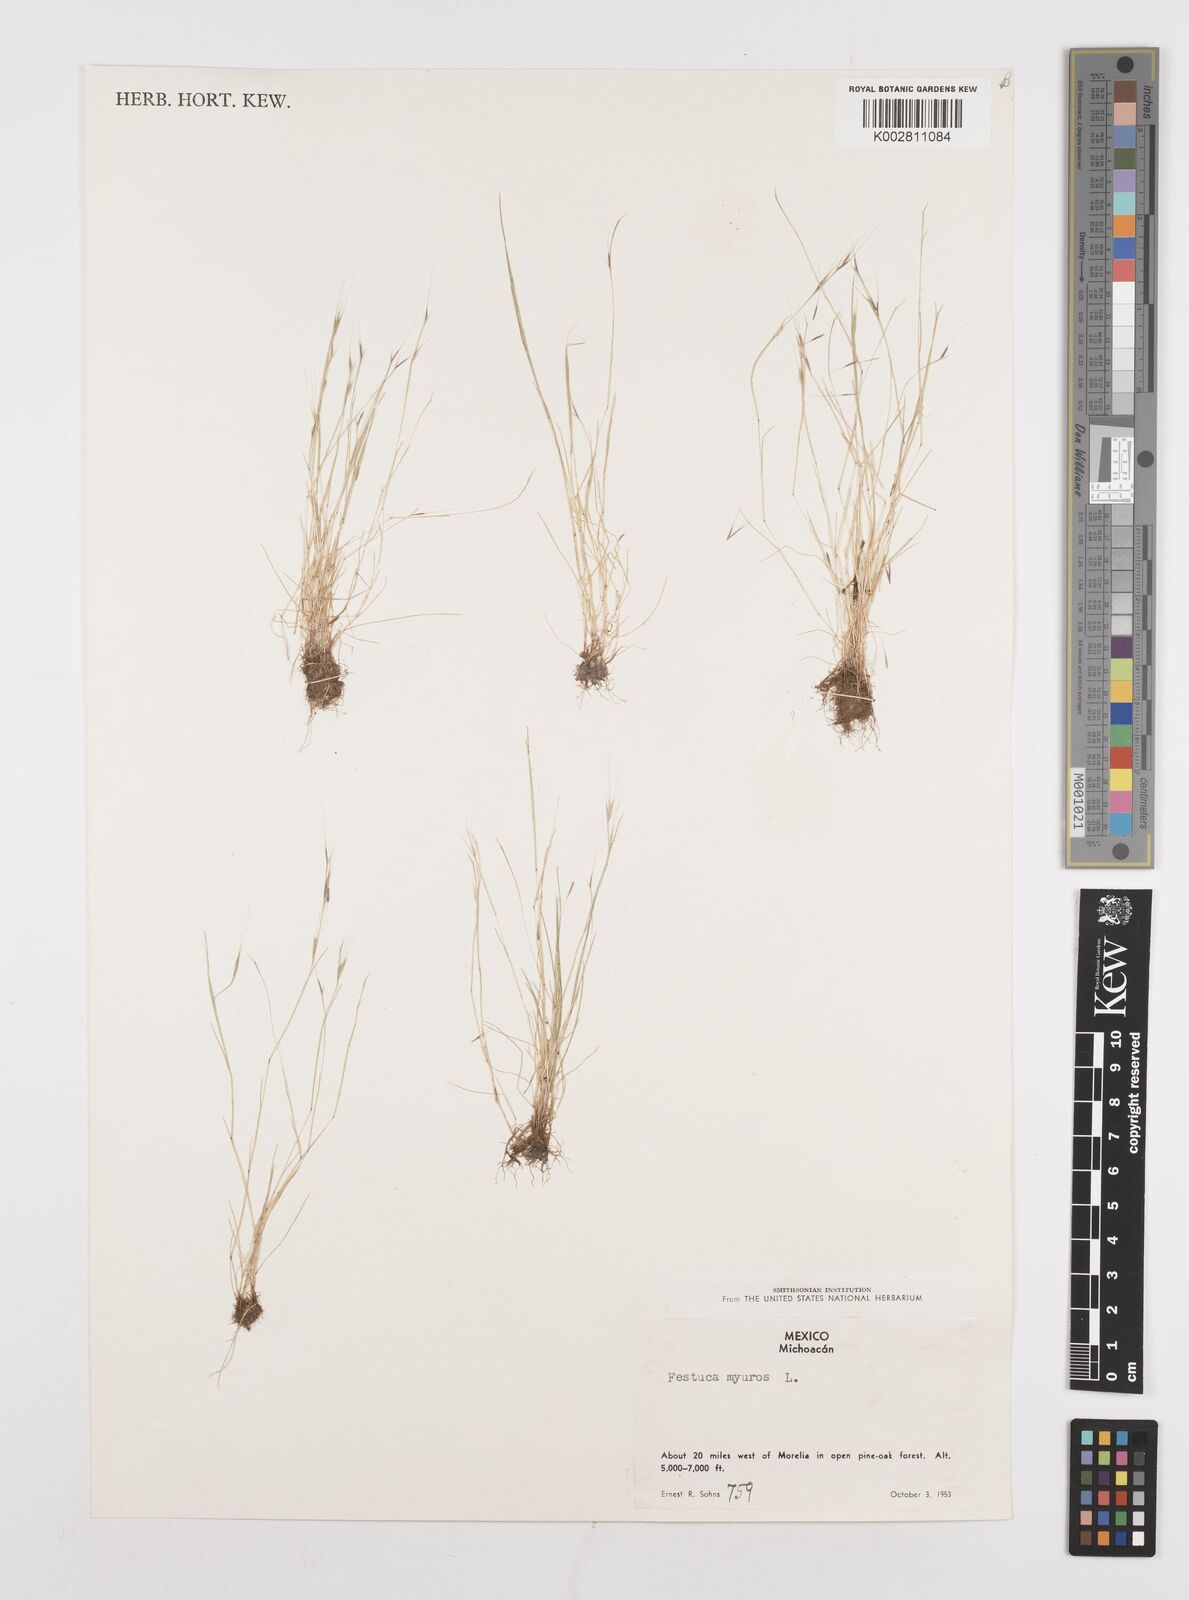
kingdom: Plantae
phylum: Tracheophyta
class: Liliopsida
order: Poales
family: Poaceae
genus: Festuca
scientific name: Festuca myuros
